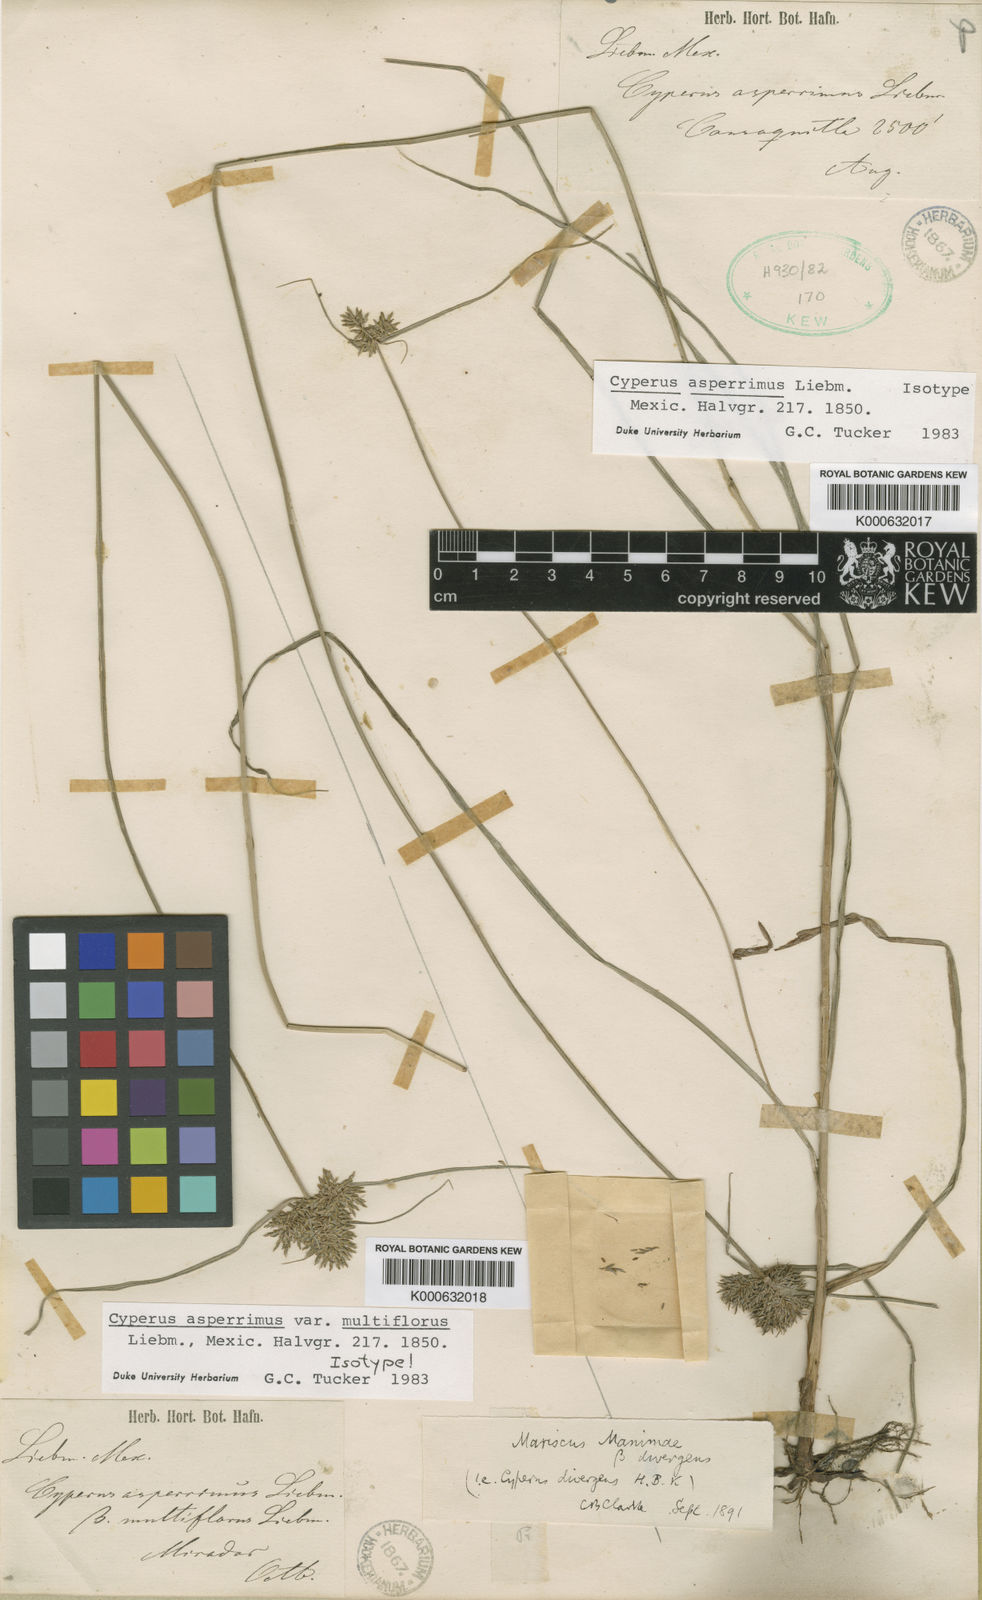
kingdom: Plantae
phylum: Tracheophyta
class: Liliopsida
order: Poales
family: Cyperaceae
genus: Cyperus
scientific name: Cyperus manimae
